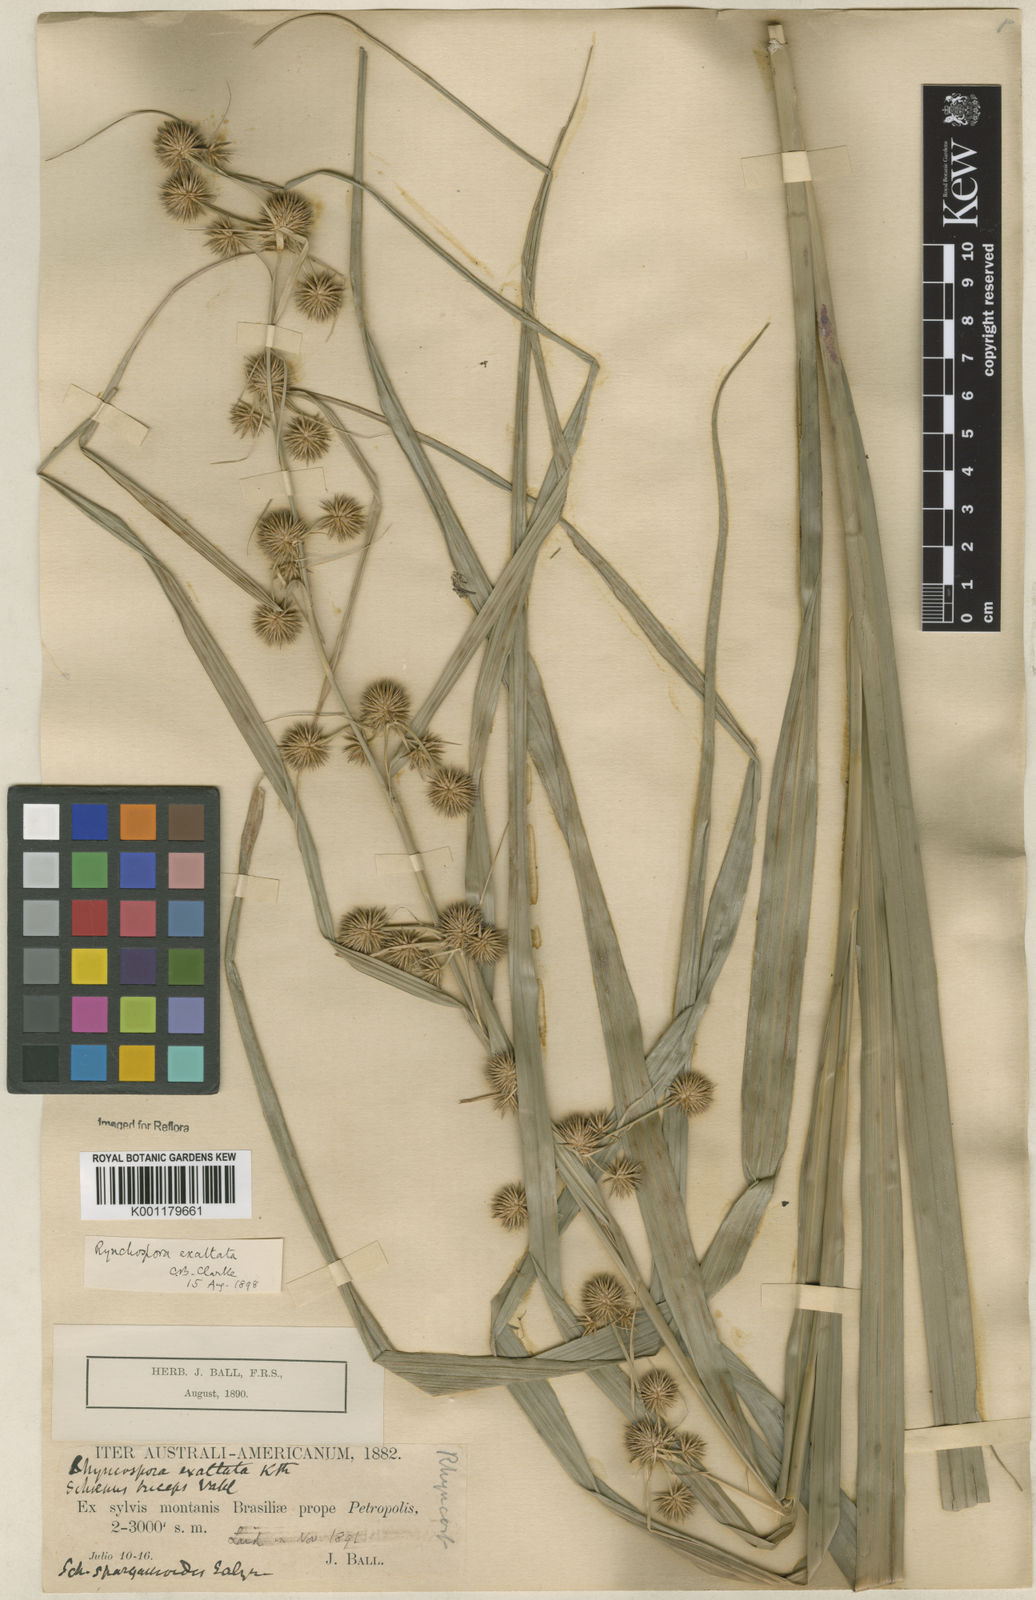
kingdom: Plantae
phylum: Tracheophyta
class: Liliopsida
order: Poales
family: Cyperaceae
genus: Rhynchospora
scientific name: Rhynchospora exaltata
